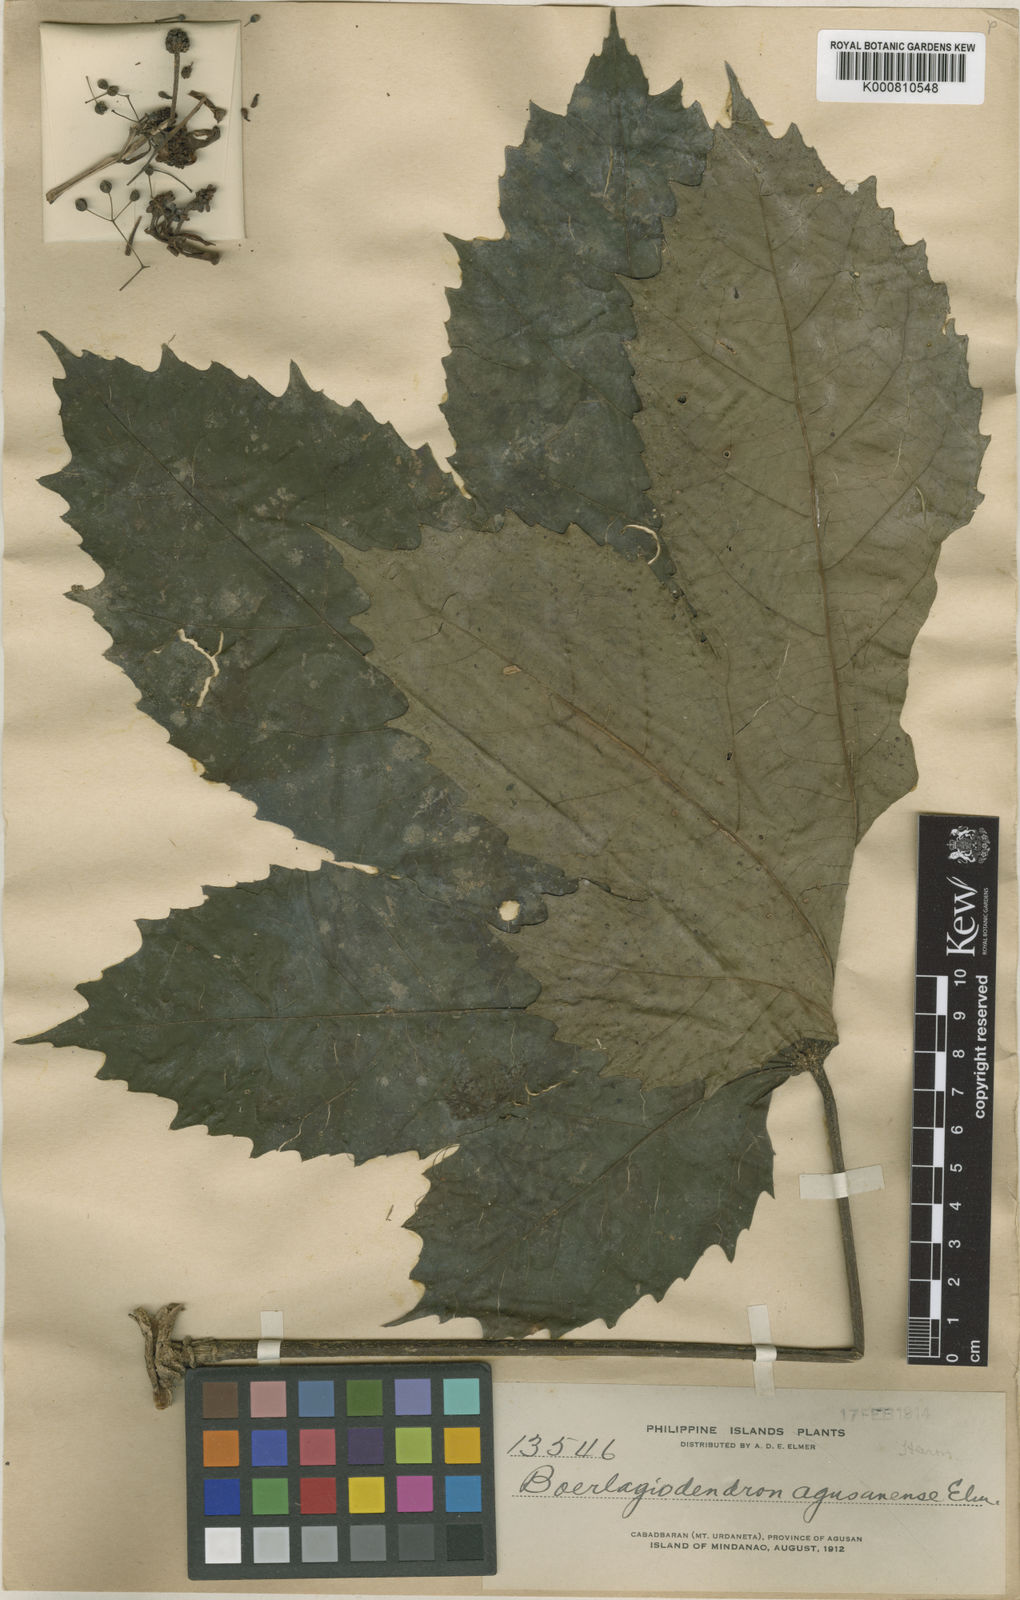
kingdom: Plantae
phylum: Tracheophyta
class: Magnoliopsida
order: Apiales
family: Araliaceae
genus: Osmoxylon
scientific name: Osmoxylon luzoniense
